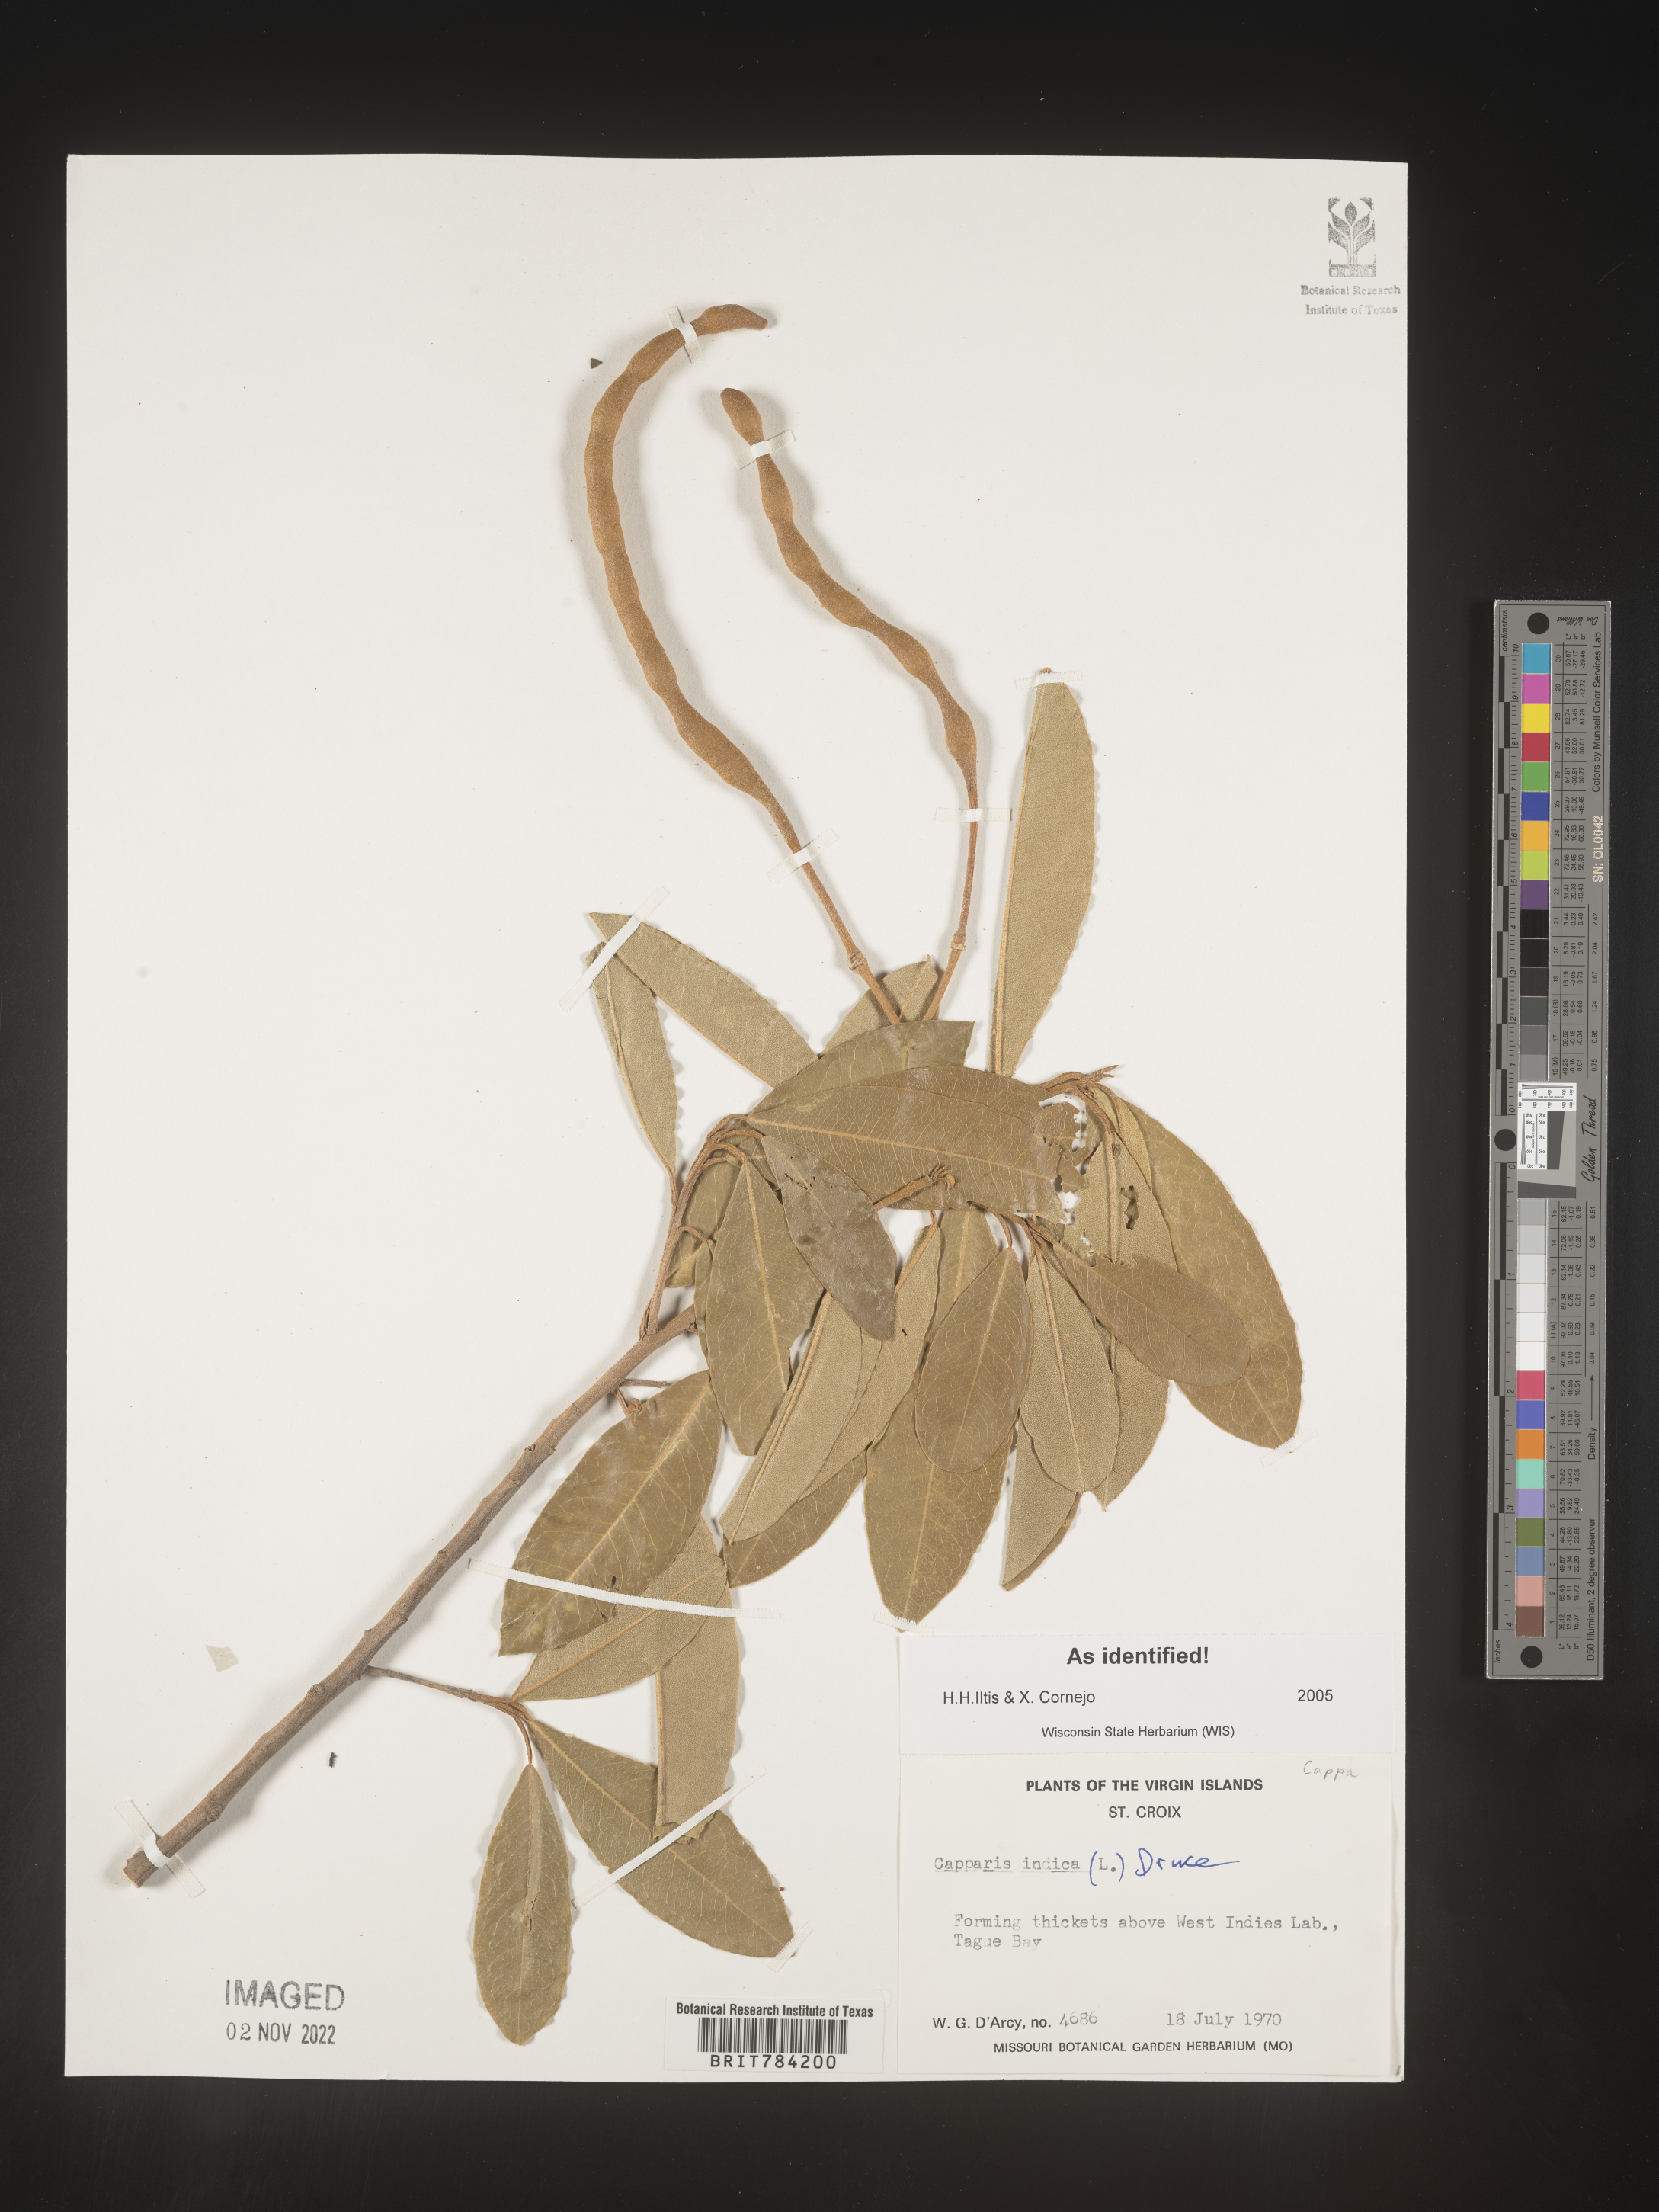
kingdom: Plantae
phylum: Tracheophyta
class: Magnoliopsida
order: Brassicales
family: Capparaceae
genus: Capparis
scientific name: Capparis
